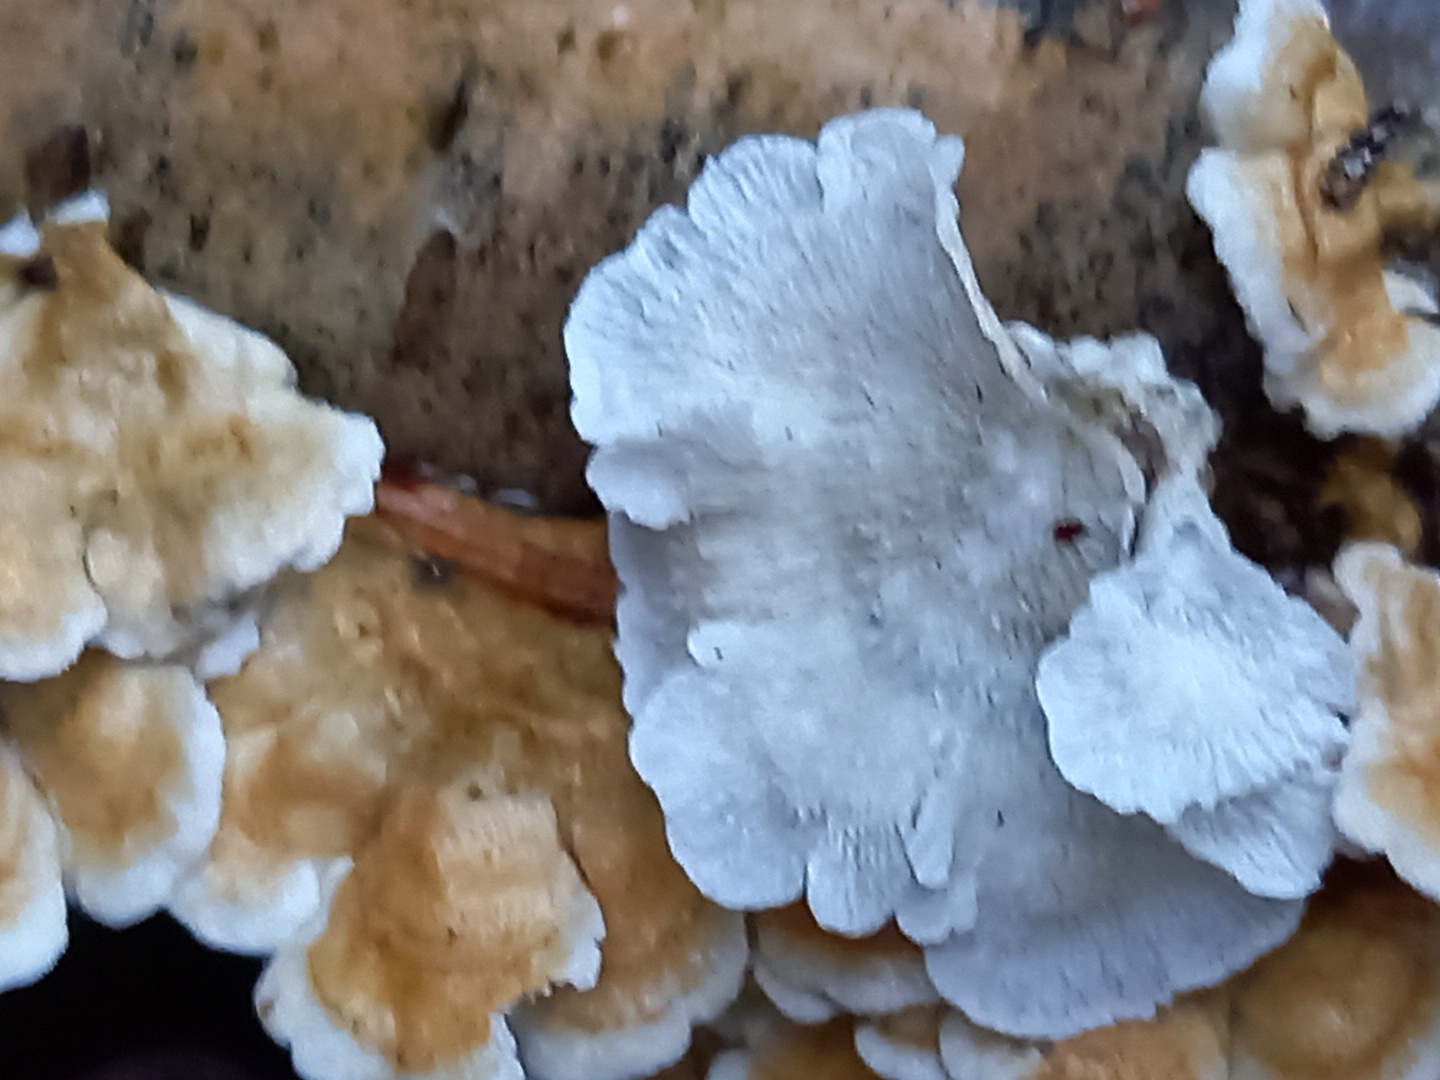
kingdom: Fungi
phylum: Basidiomycota
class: Agaricomycetes
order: Amylocorticiales
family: Amylocorticiaceae
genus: Plicaturopsis
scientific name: Plicaturopsis crispa
